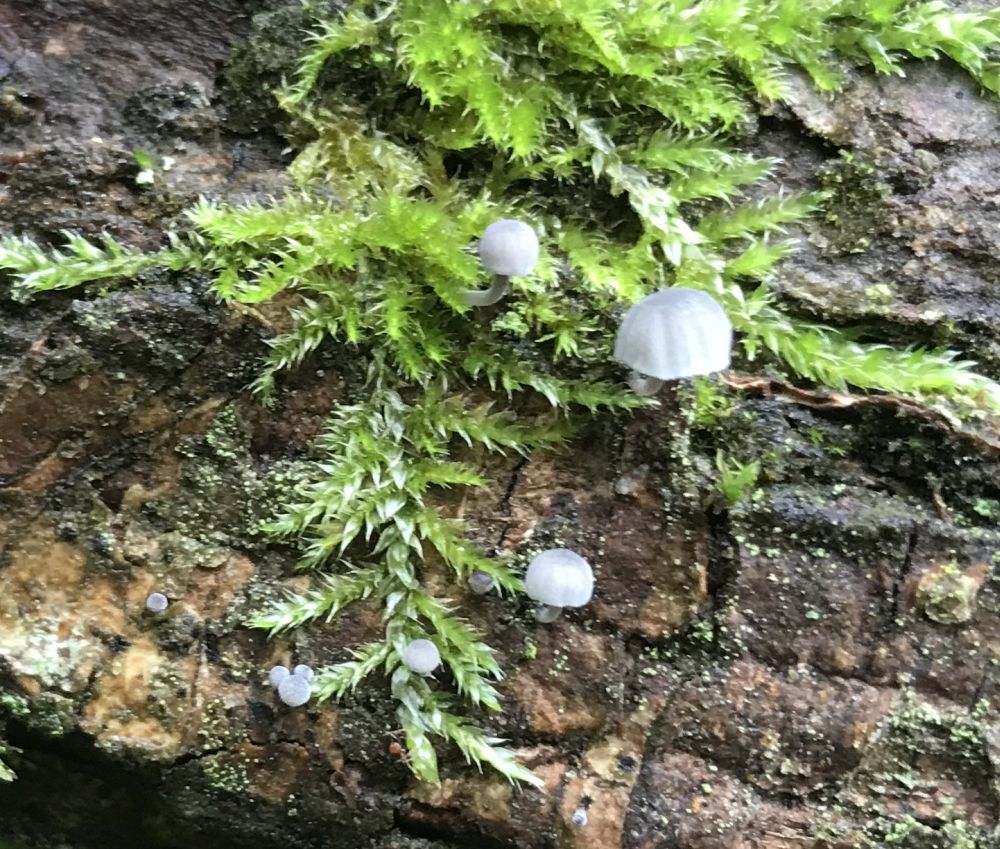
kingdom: Fungi
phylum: Basidiomycota
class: Agaricomycetes
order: Agaricales
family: Mycenaceae
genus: Mycena
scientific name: Mycena pseudocorticola
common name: gråblå bark-huesvamp
